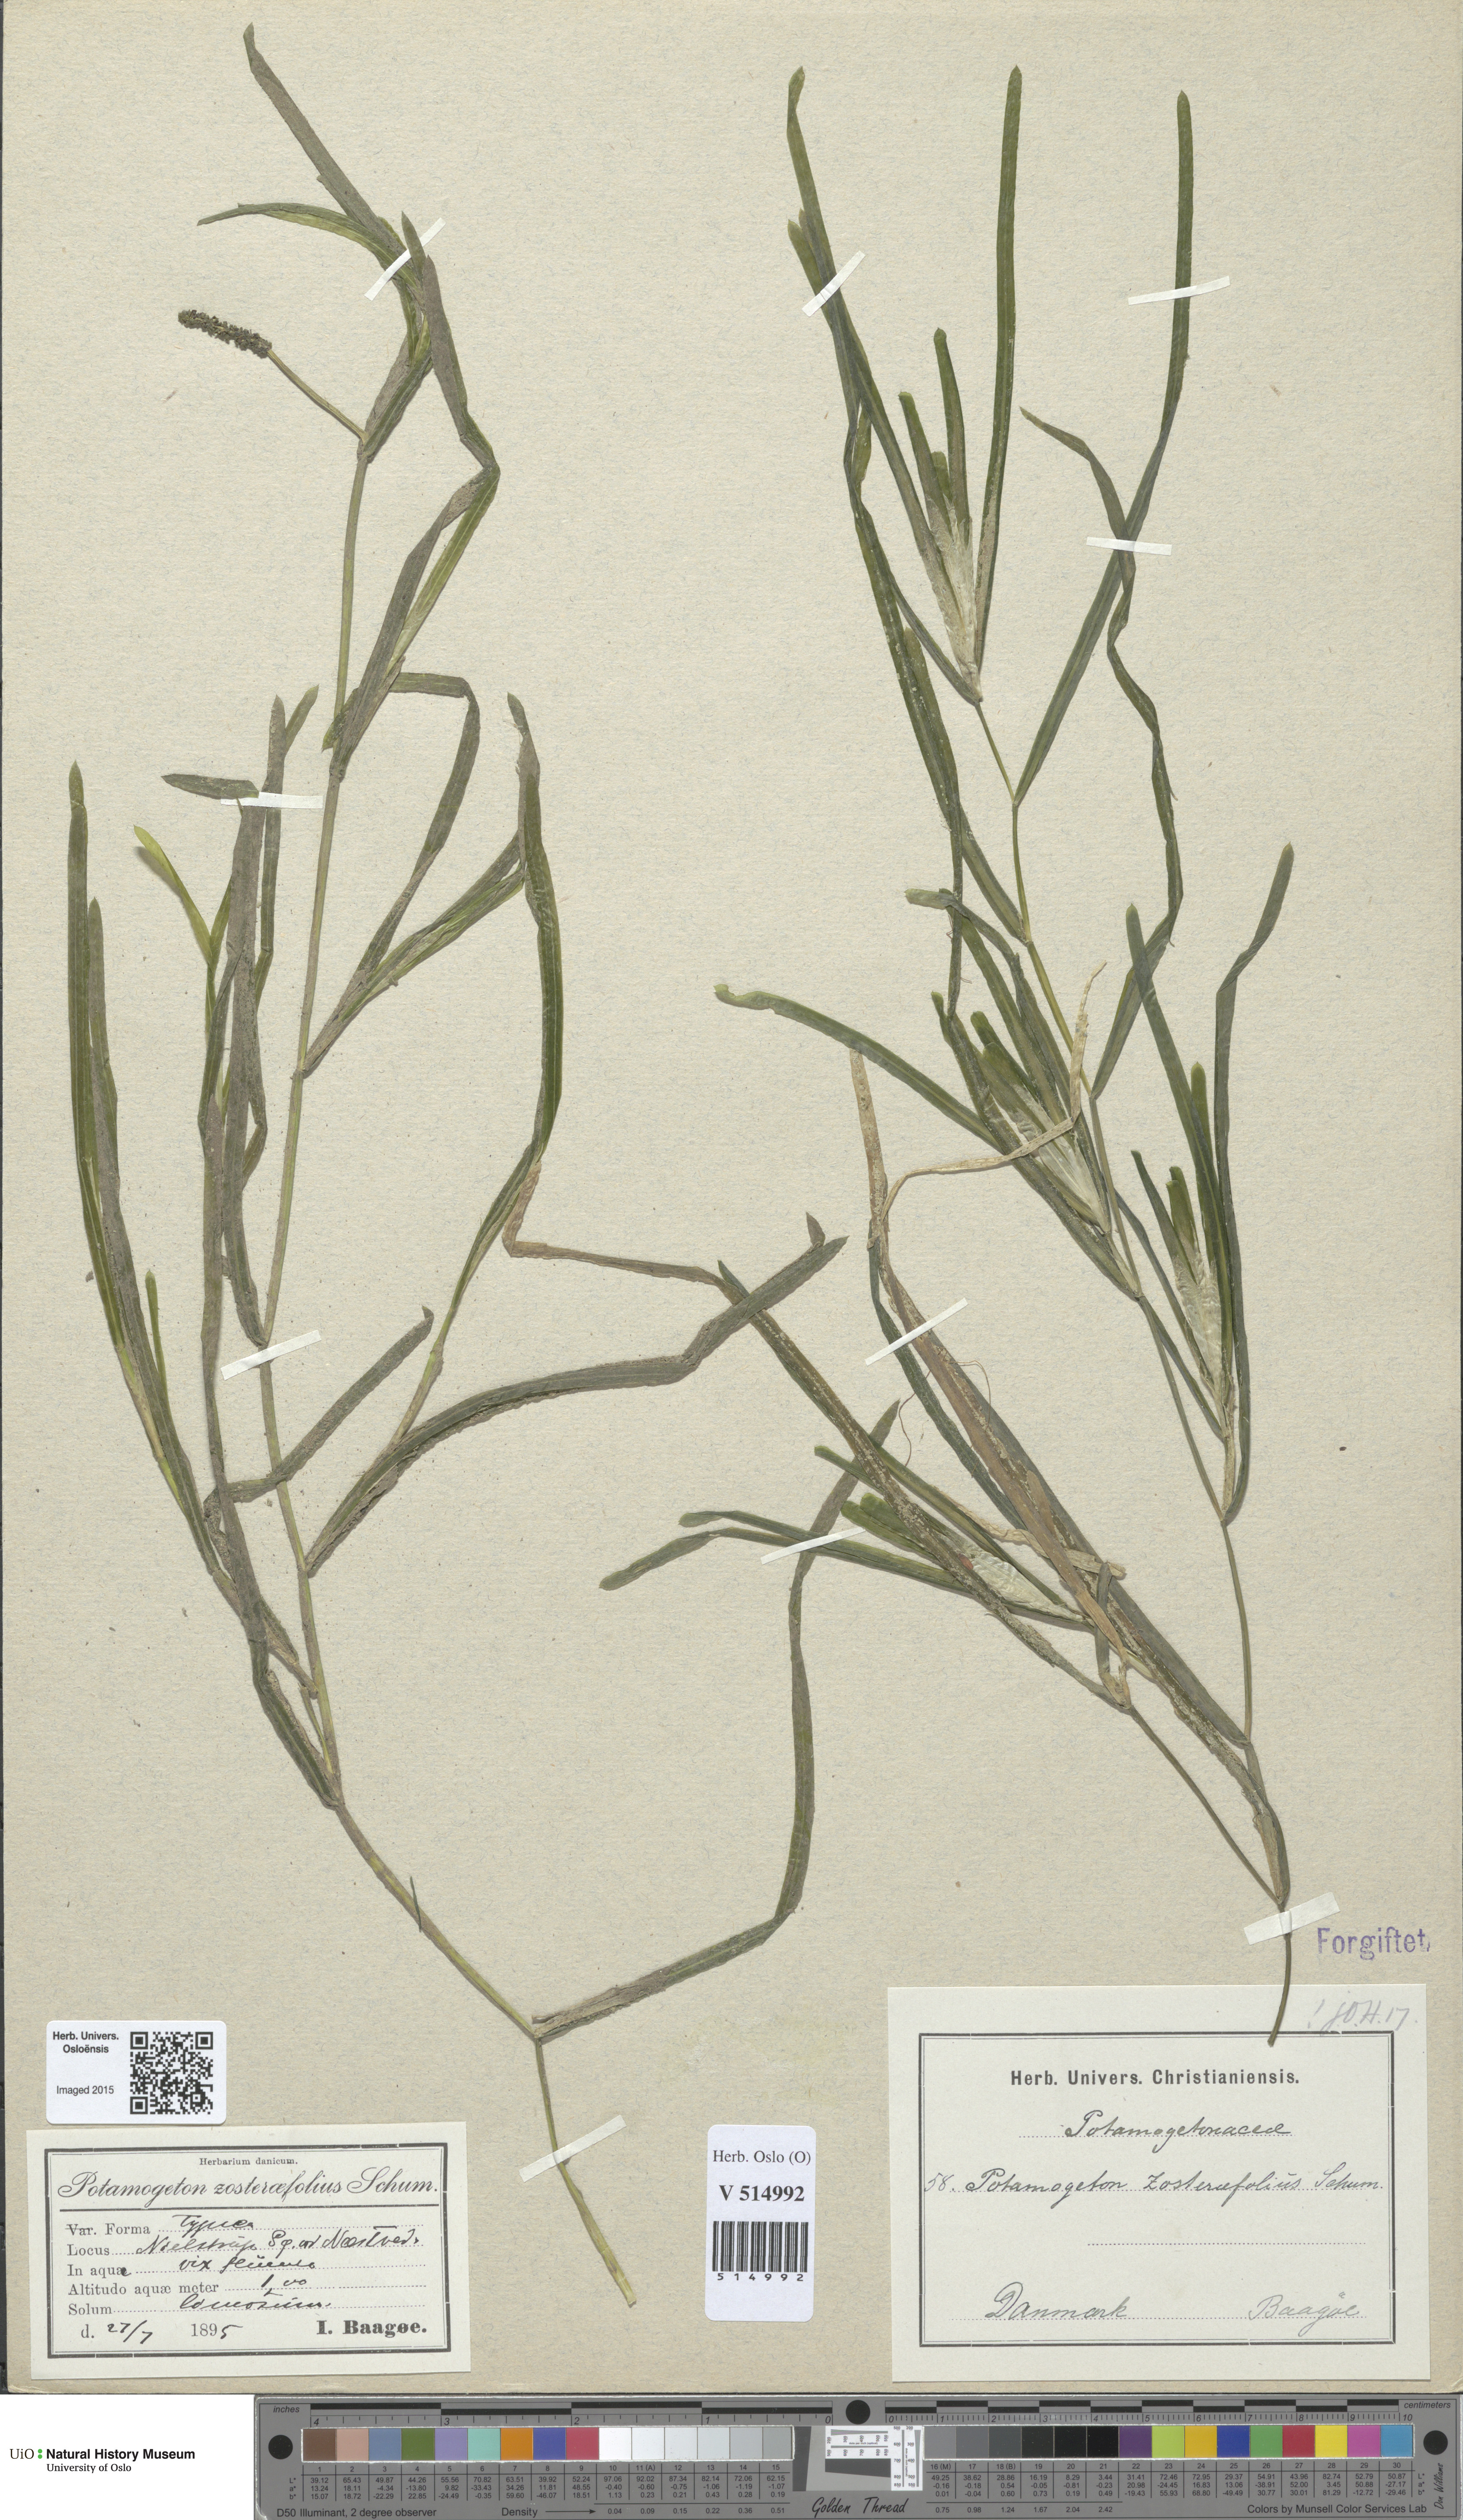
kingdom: Plantae
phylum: Tracheophyta
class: Liliopsida
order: Alismatales
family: Potamogetonaceae
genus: Potamogeton
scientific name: Potamogeton compressus
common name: Grass-wrack pondweed
